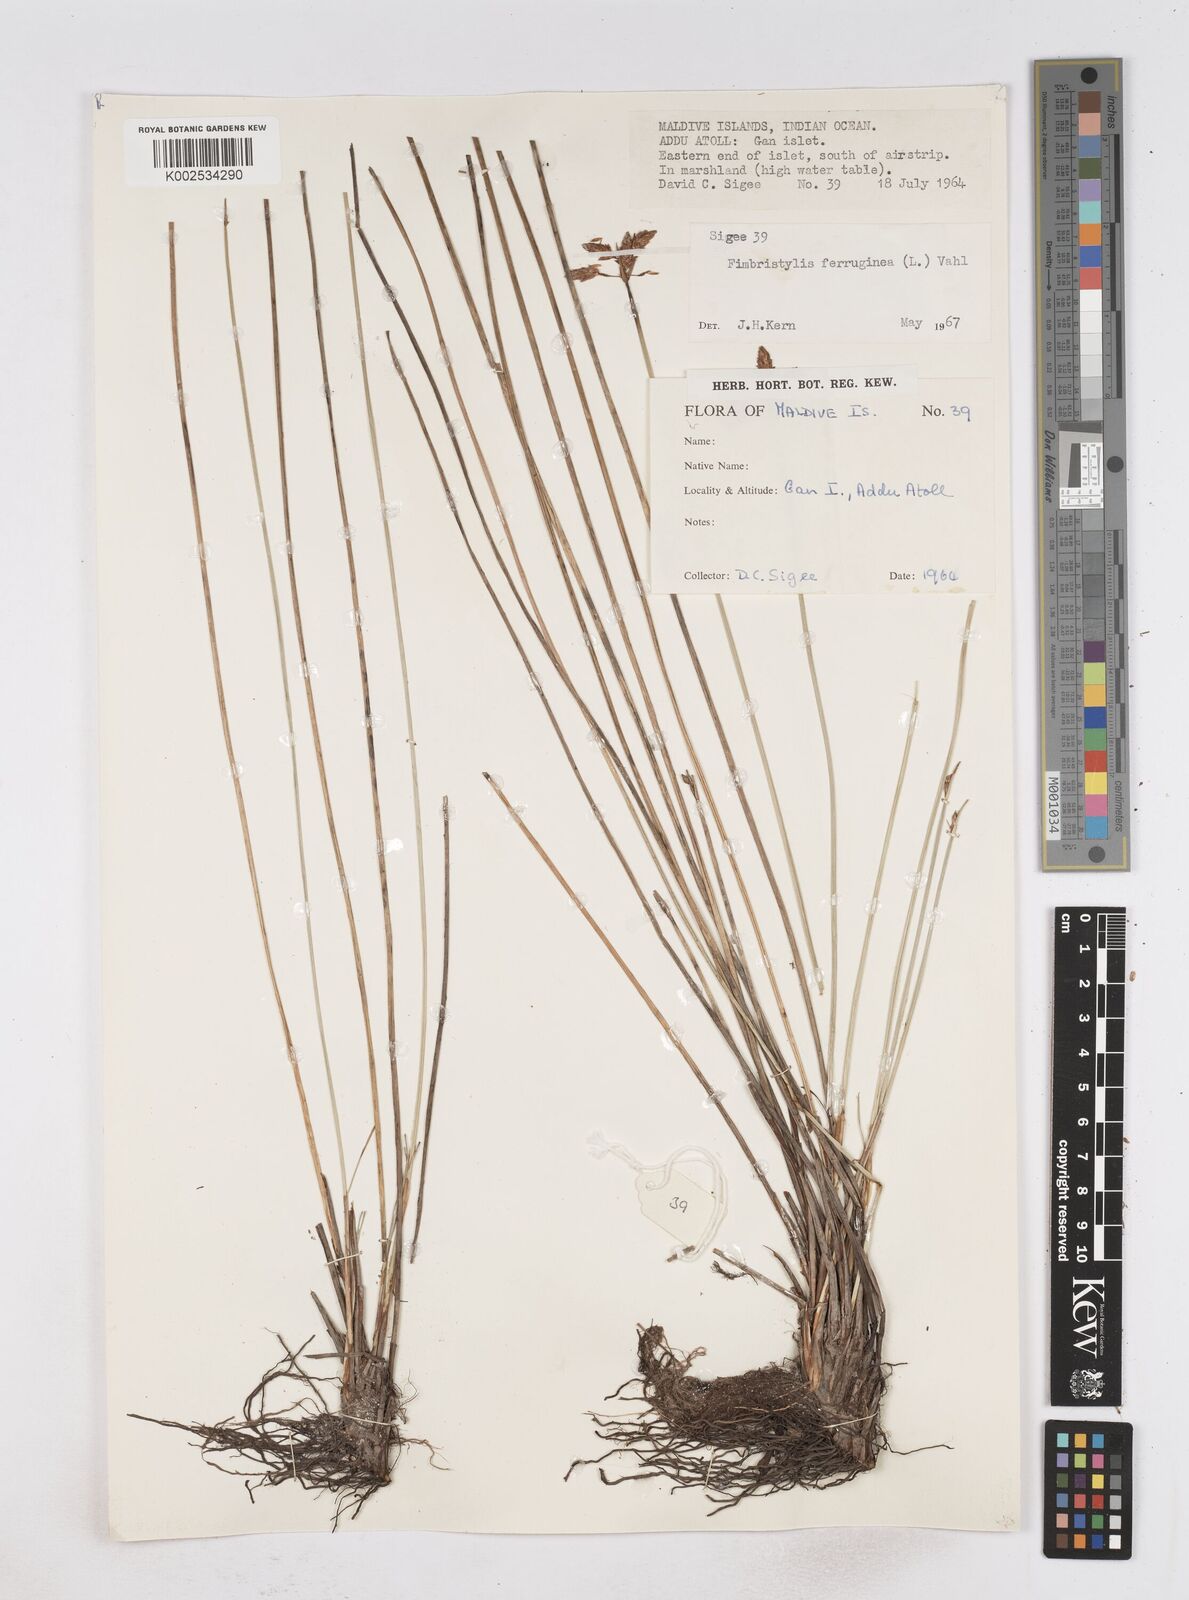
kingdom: Plantae
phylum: Tracheophyta
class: Liliopsida
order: Poales
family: Cyperaceae
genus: Fimbristylis
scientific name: Fimbristylis ferruginea
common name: West indian fimbry
